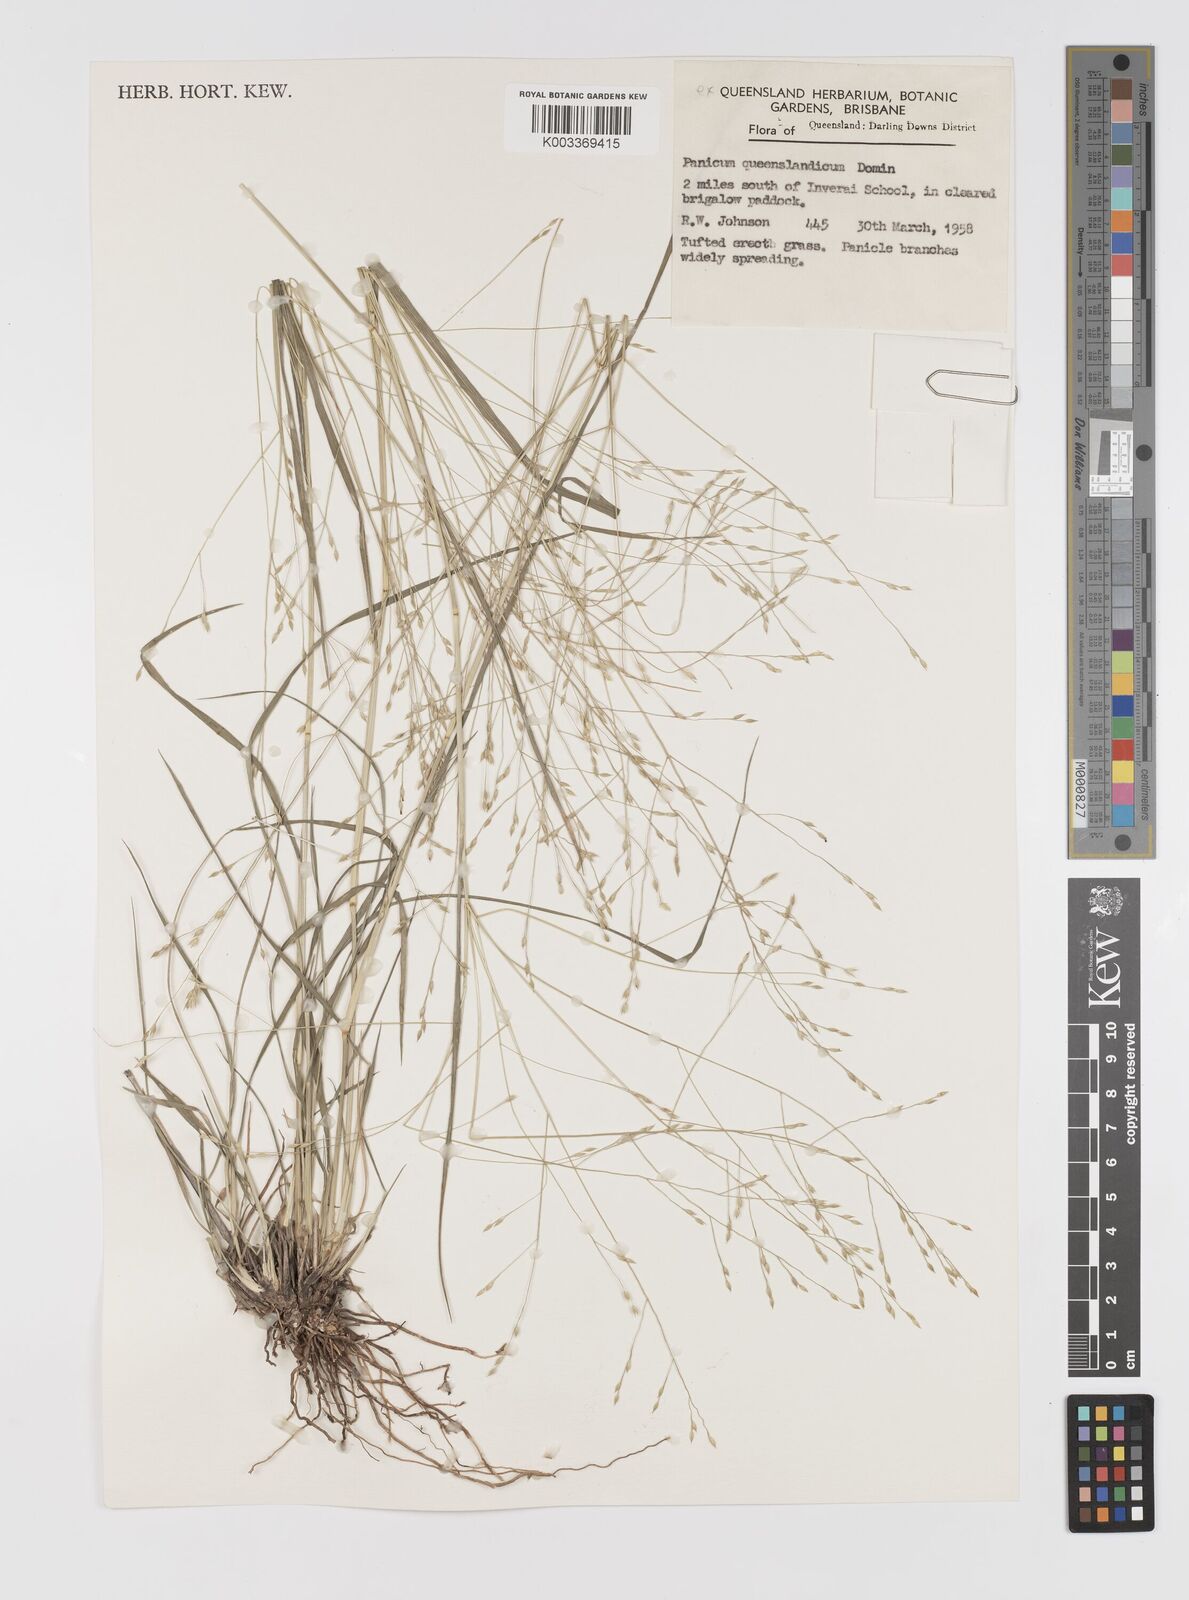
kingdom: Plantae
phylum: Tracheophyta
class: Liliopsida
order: Poales
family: Poaceae
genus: Panicum
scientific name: Panicum queenslandicum
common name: Yabila grass
